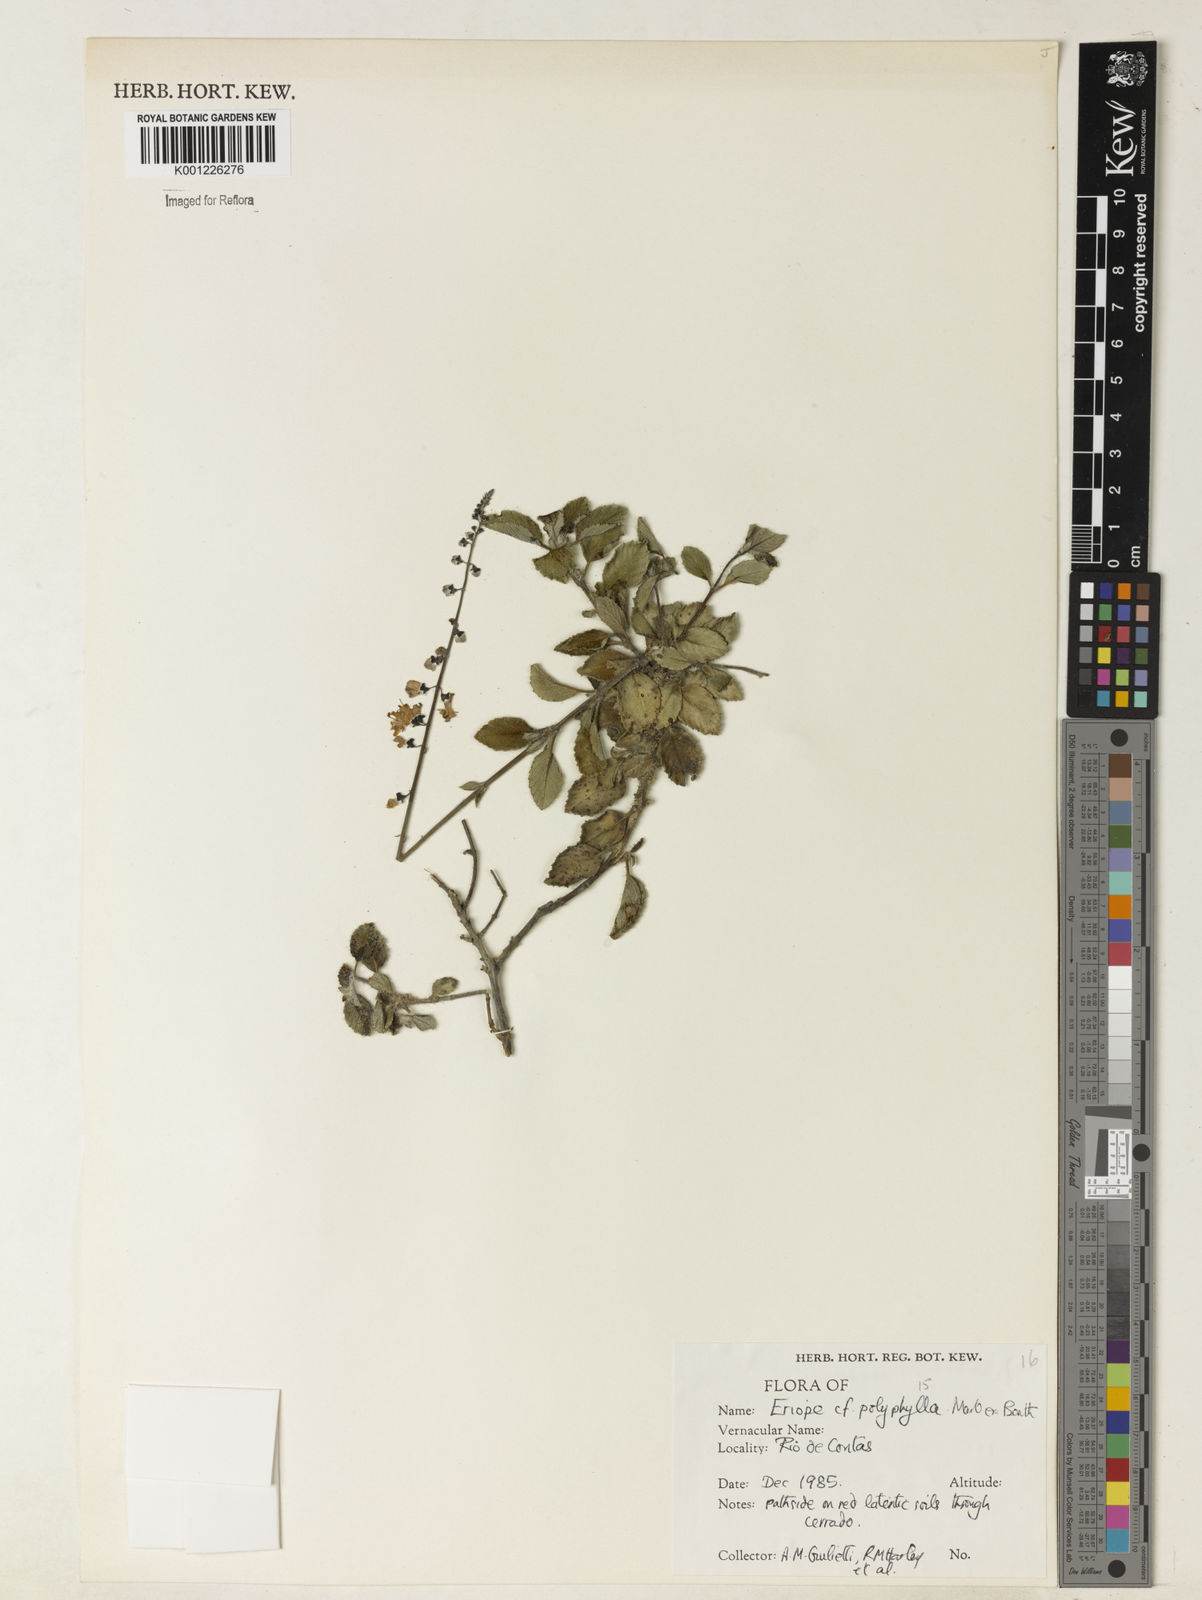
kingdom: Plantae
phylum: Tracheophyta
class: Magnoliopsida
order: Lamiales
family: Lamiaceae
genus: Eriope
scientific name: Eriope polyphylla
